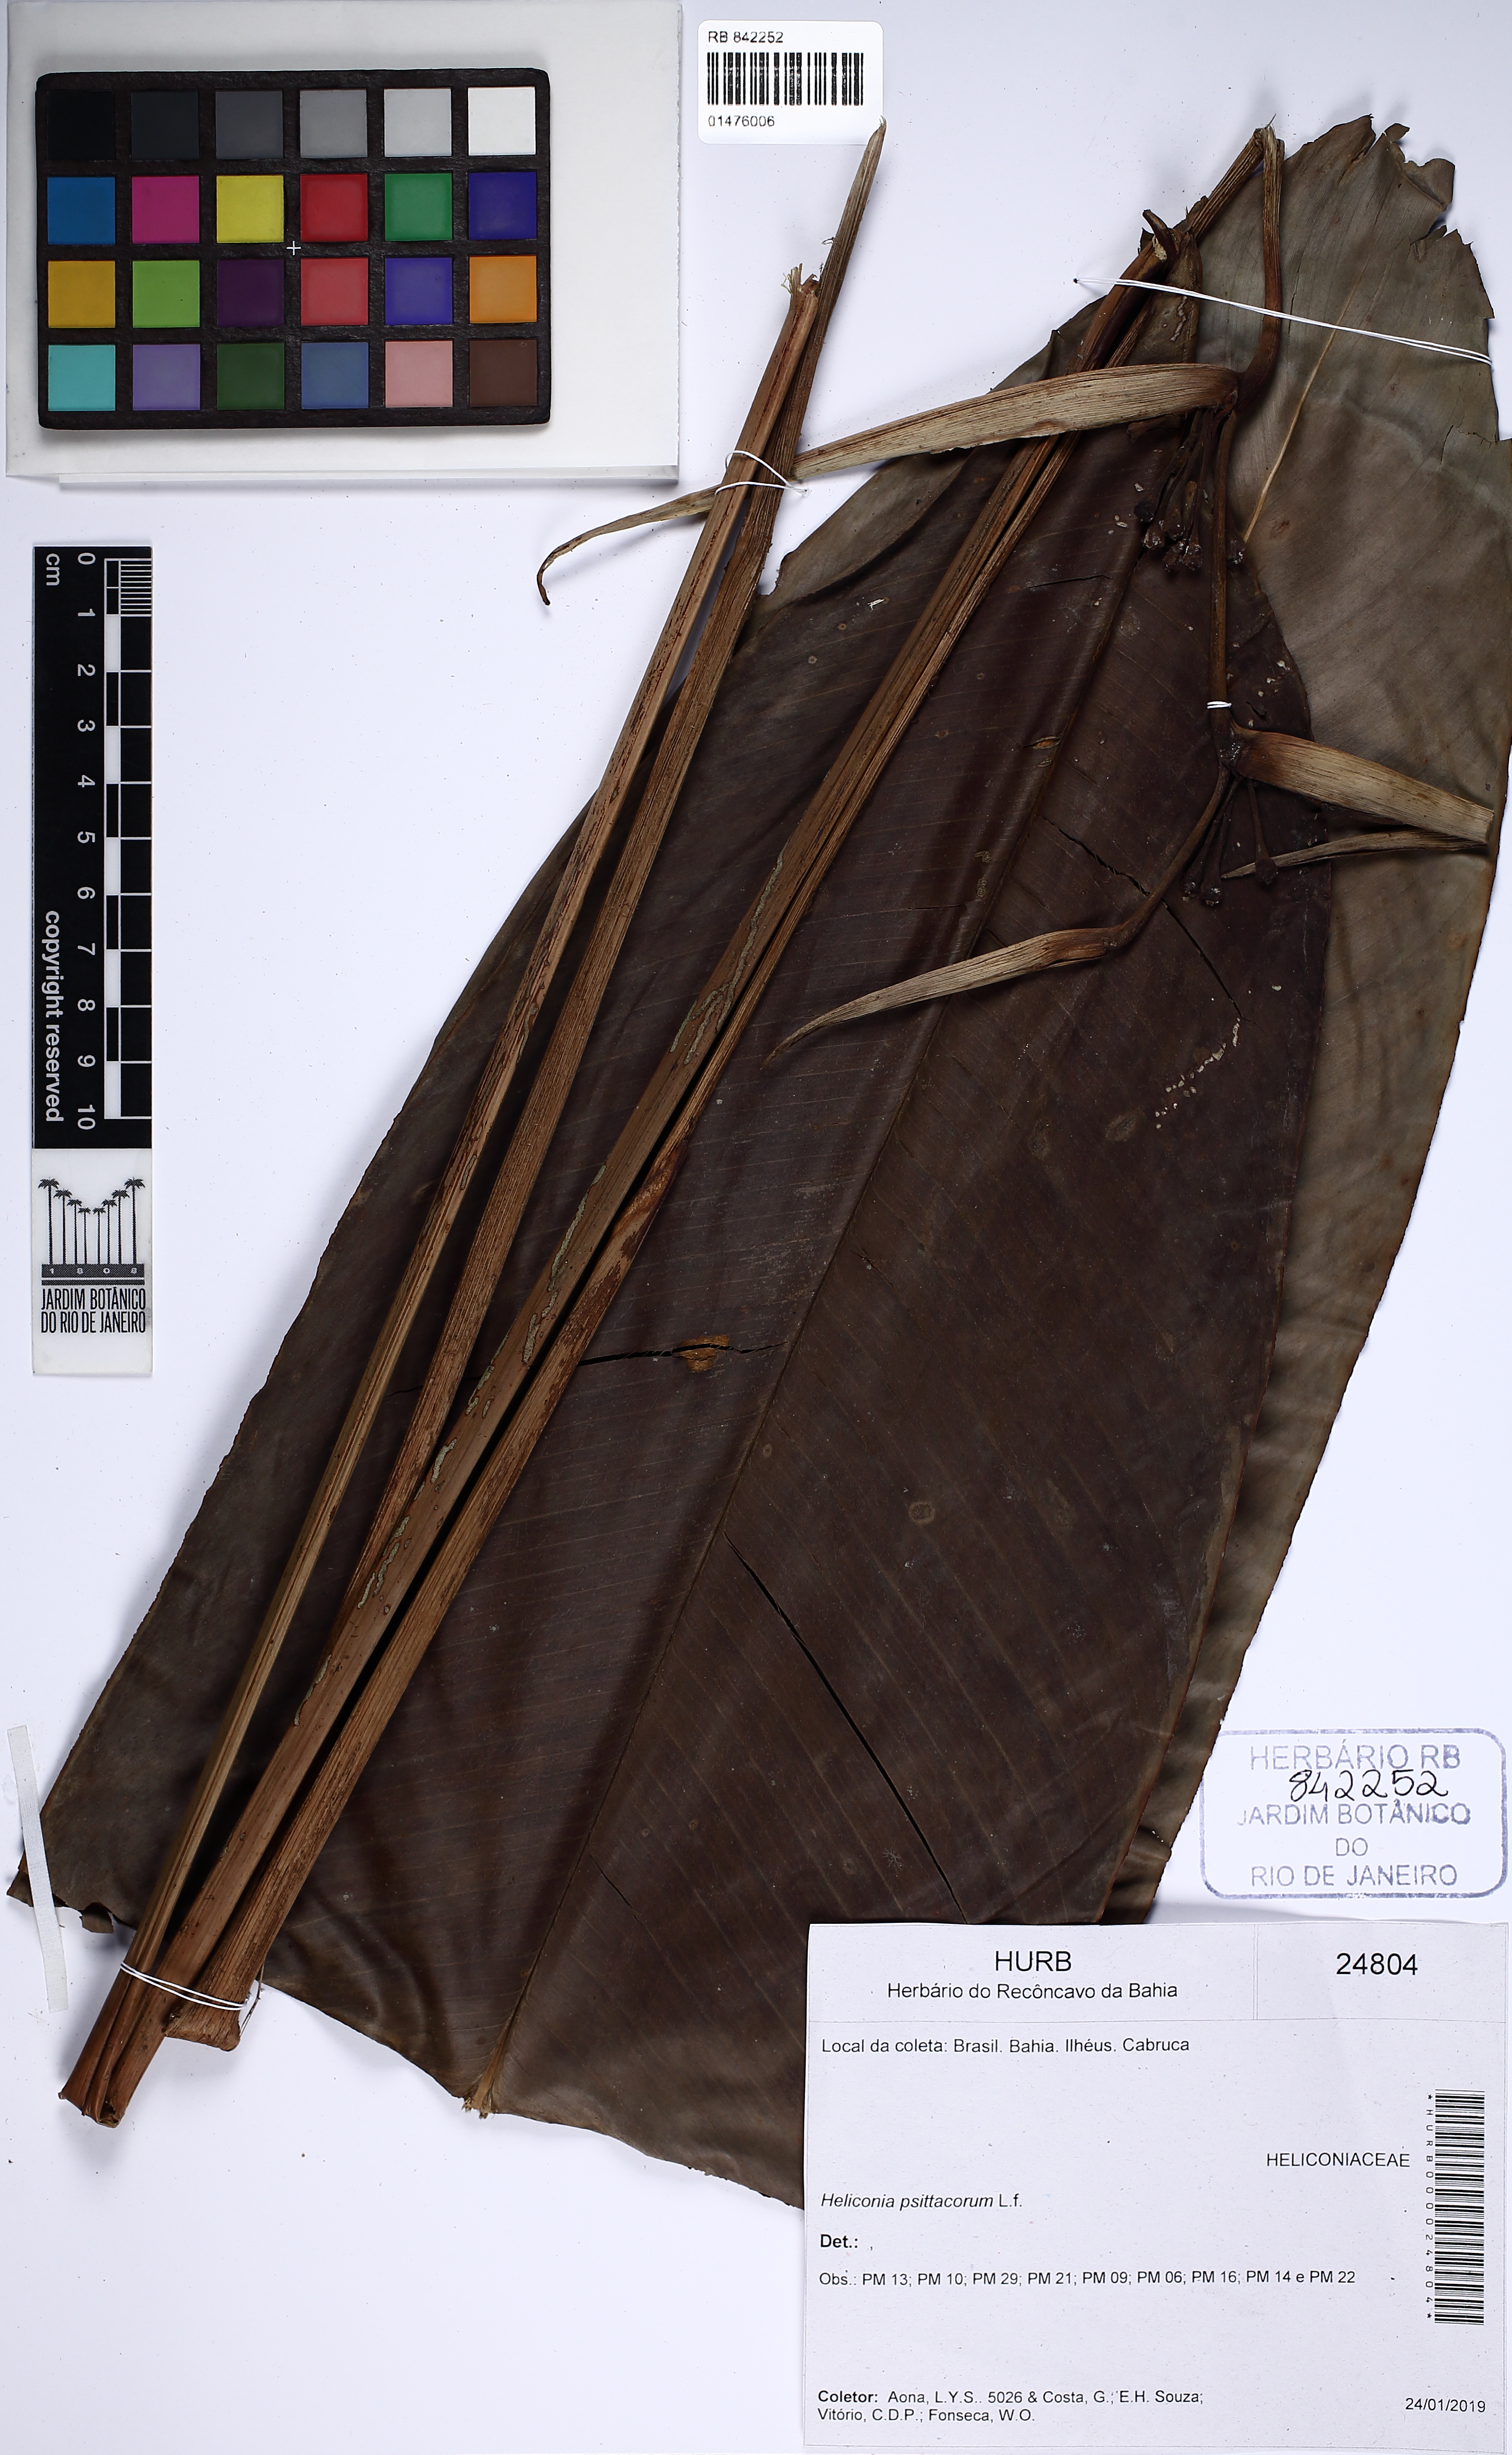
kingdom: Plantae
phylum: Tracheophyta
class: Liliopsida
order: Zingiberales
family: Heliconiaceae
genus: Heliconia
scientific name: Heliconia psittacorum
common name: Parrot's-flower
